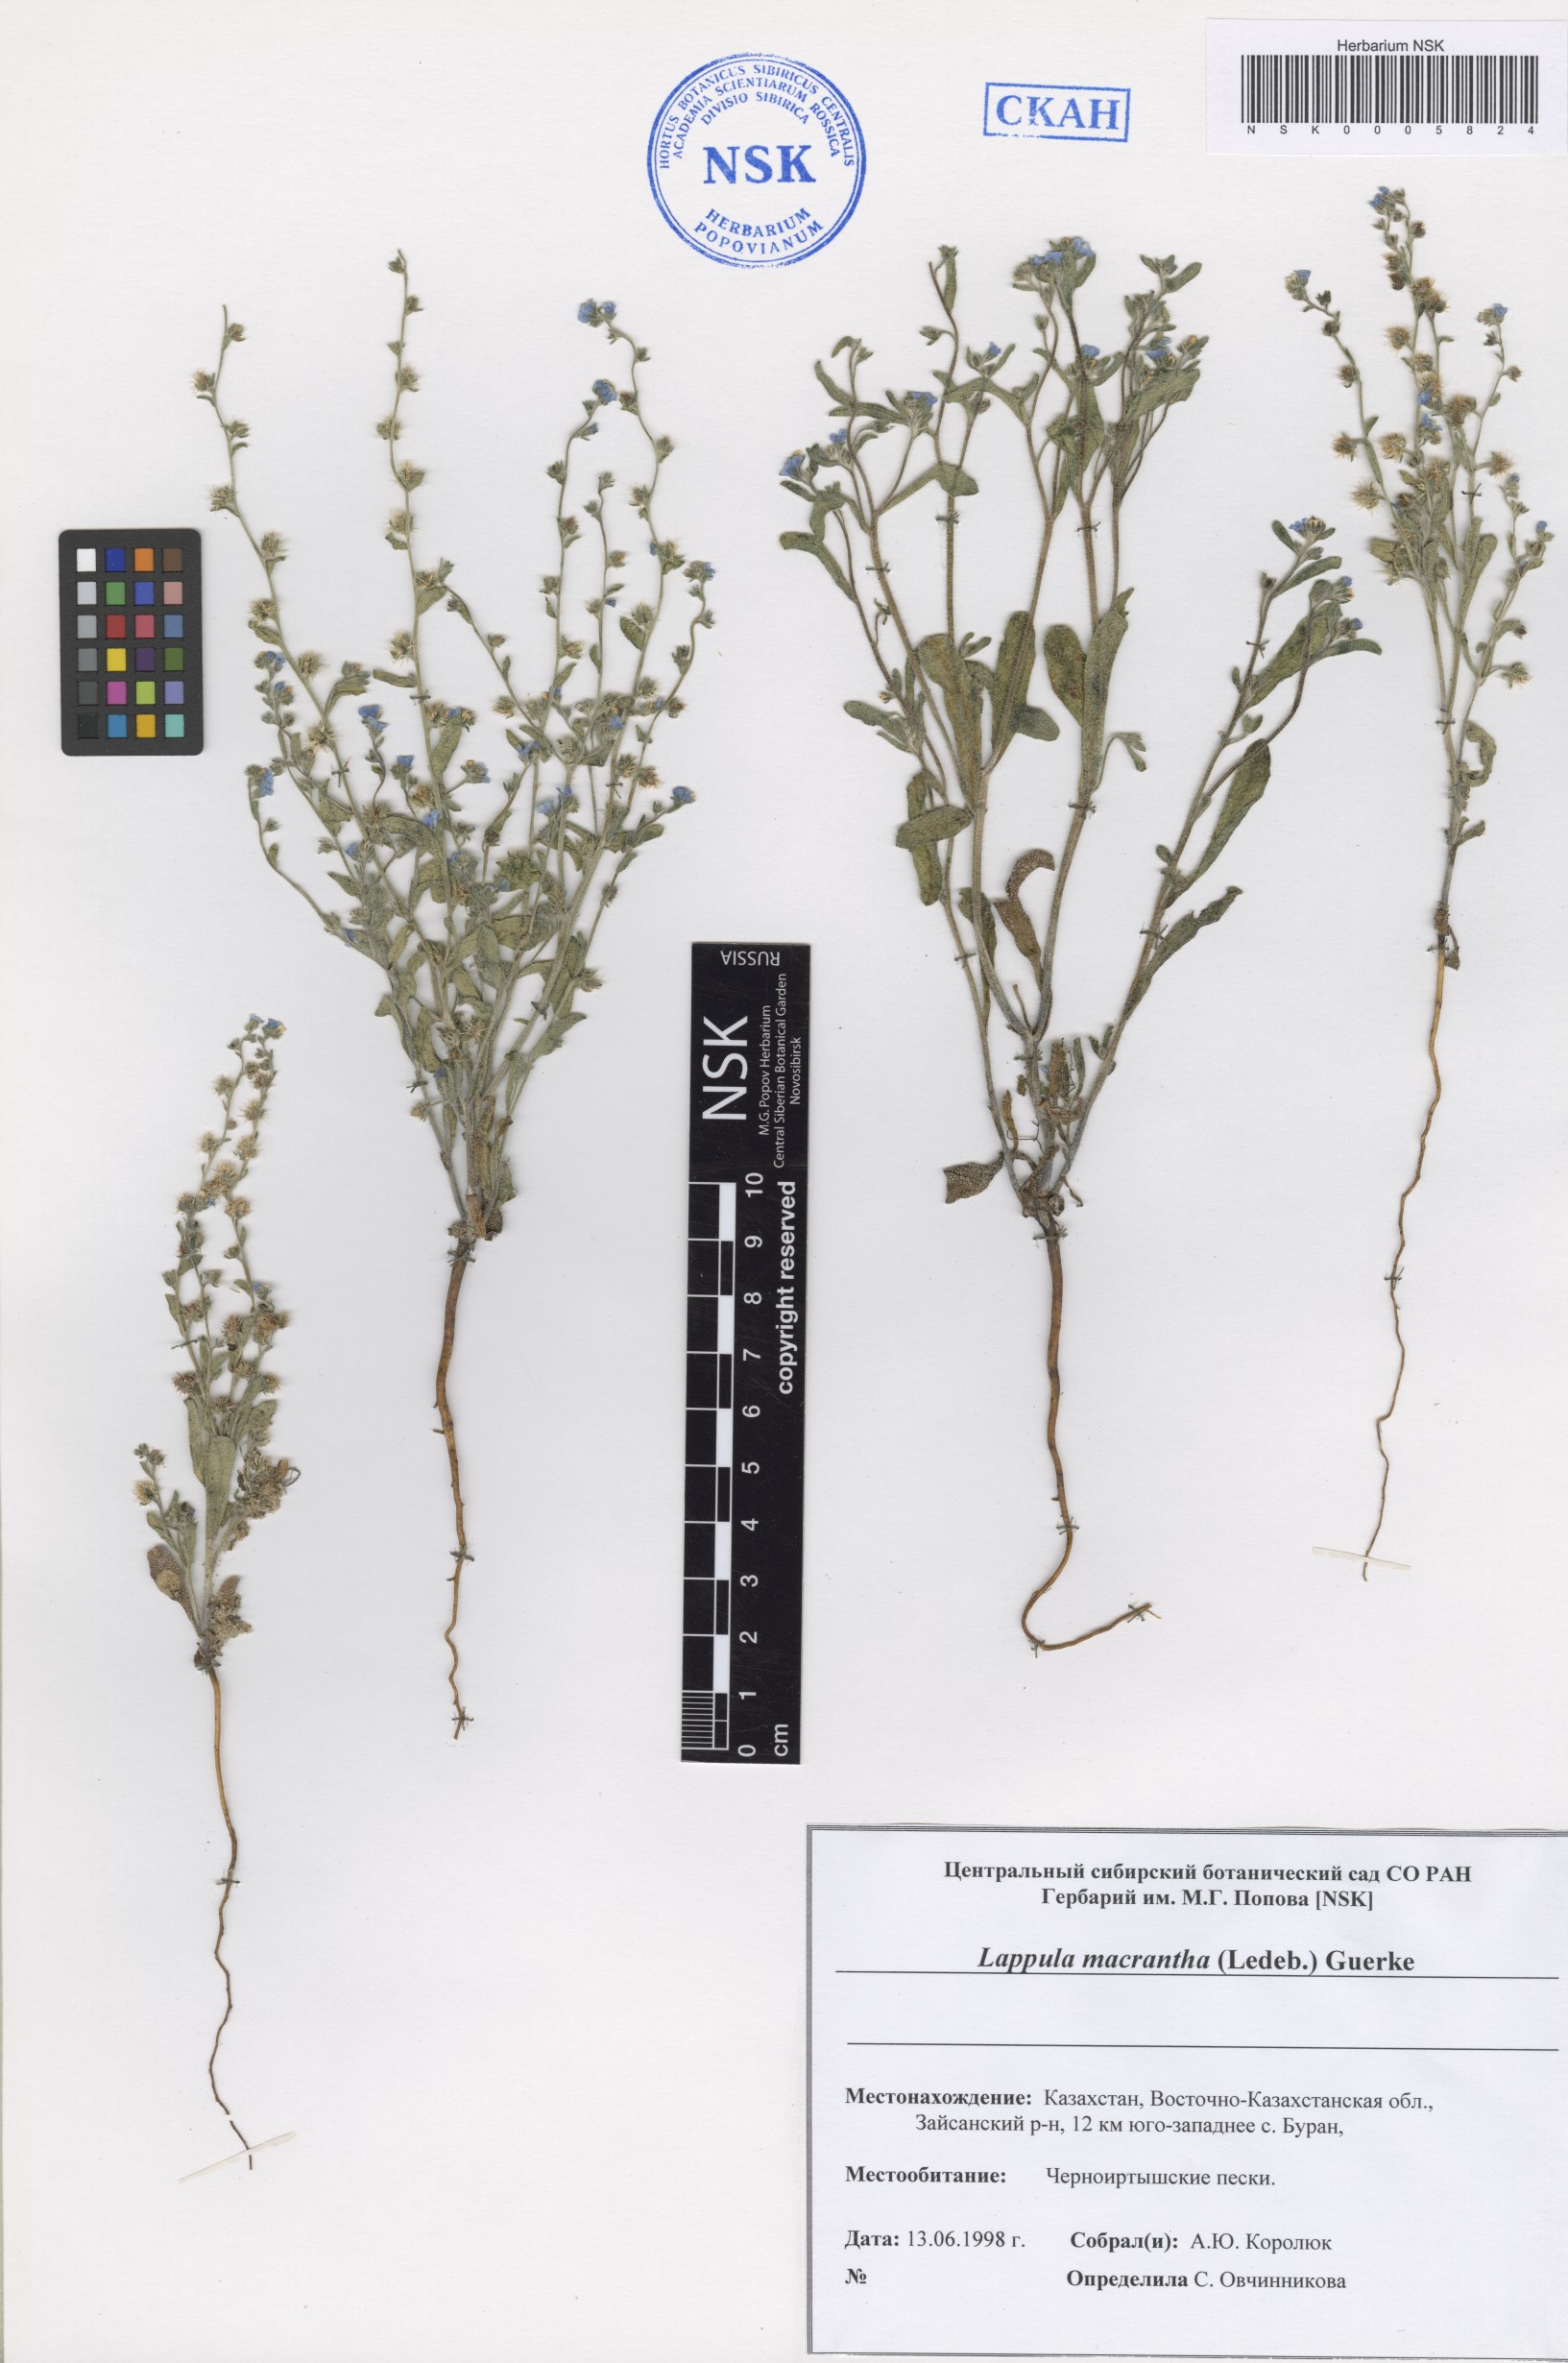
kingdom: Plantae
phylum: Tracheophyta
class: Magnoliopsida
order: Boraginales
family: Boraginaceae
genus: Lappula
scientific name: Lappula macrantha
